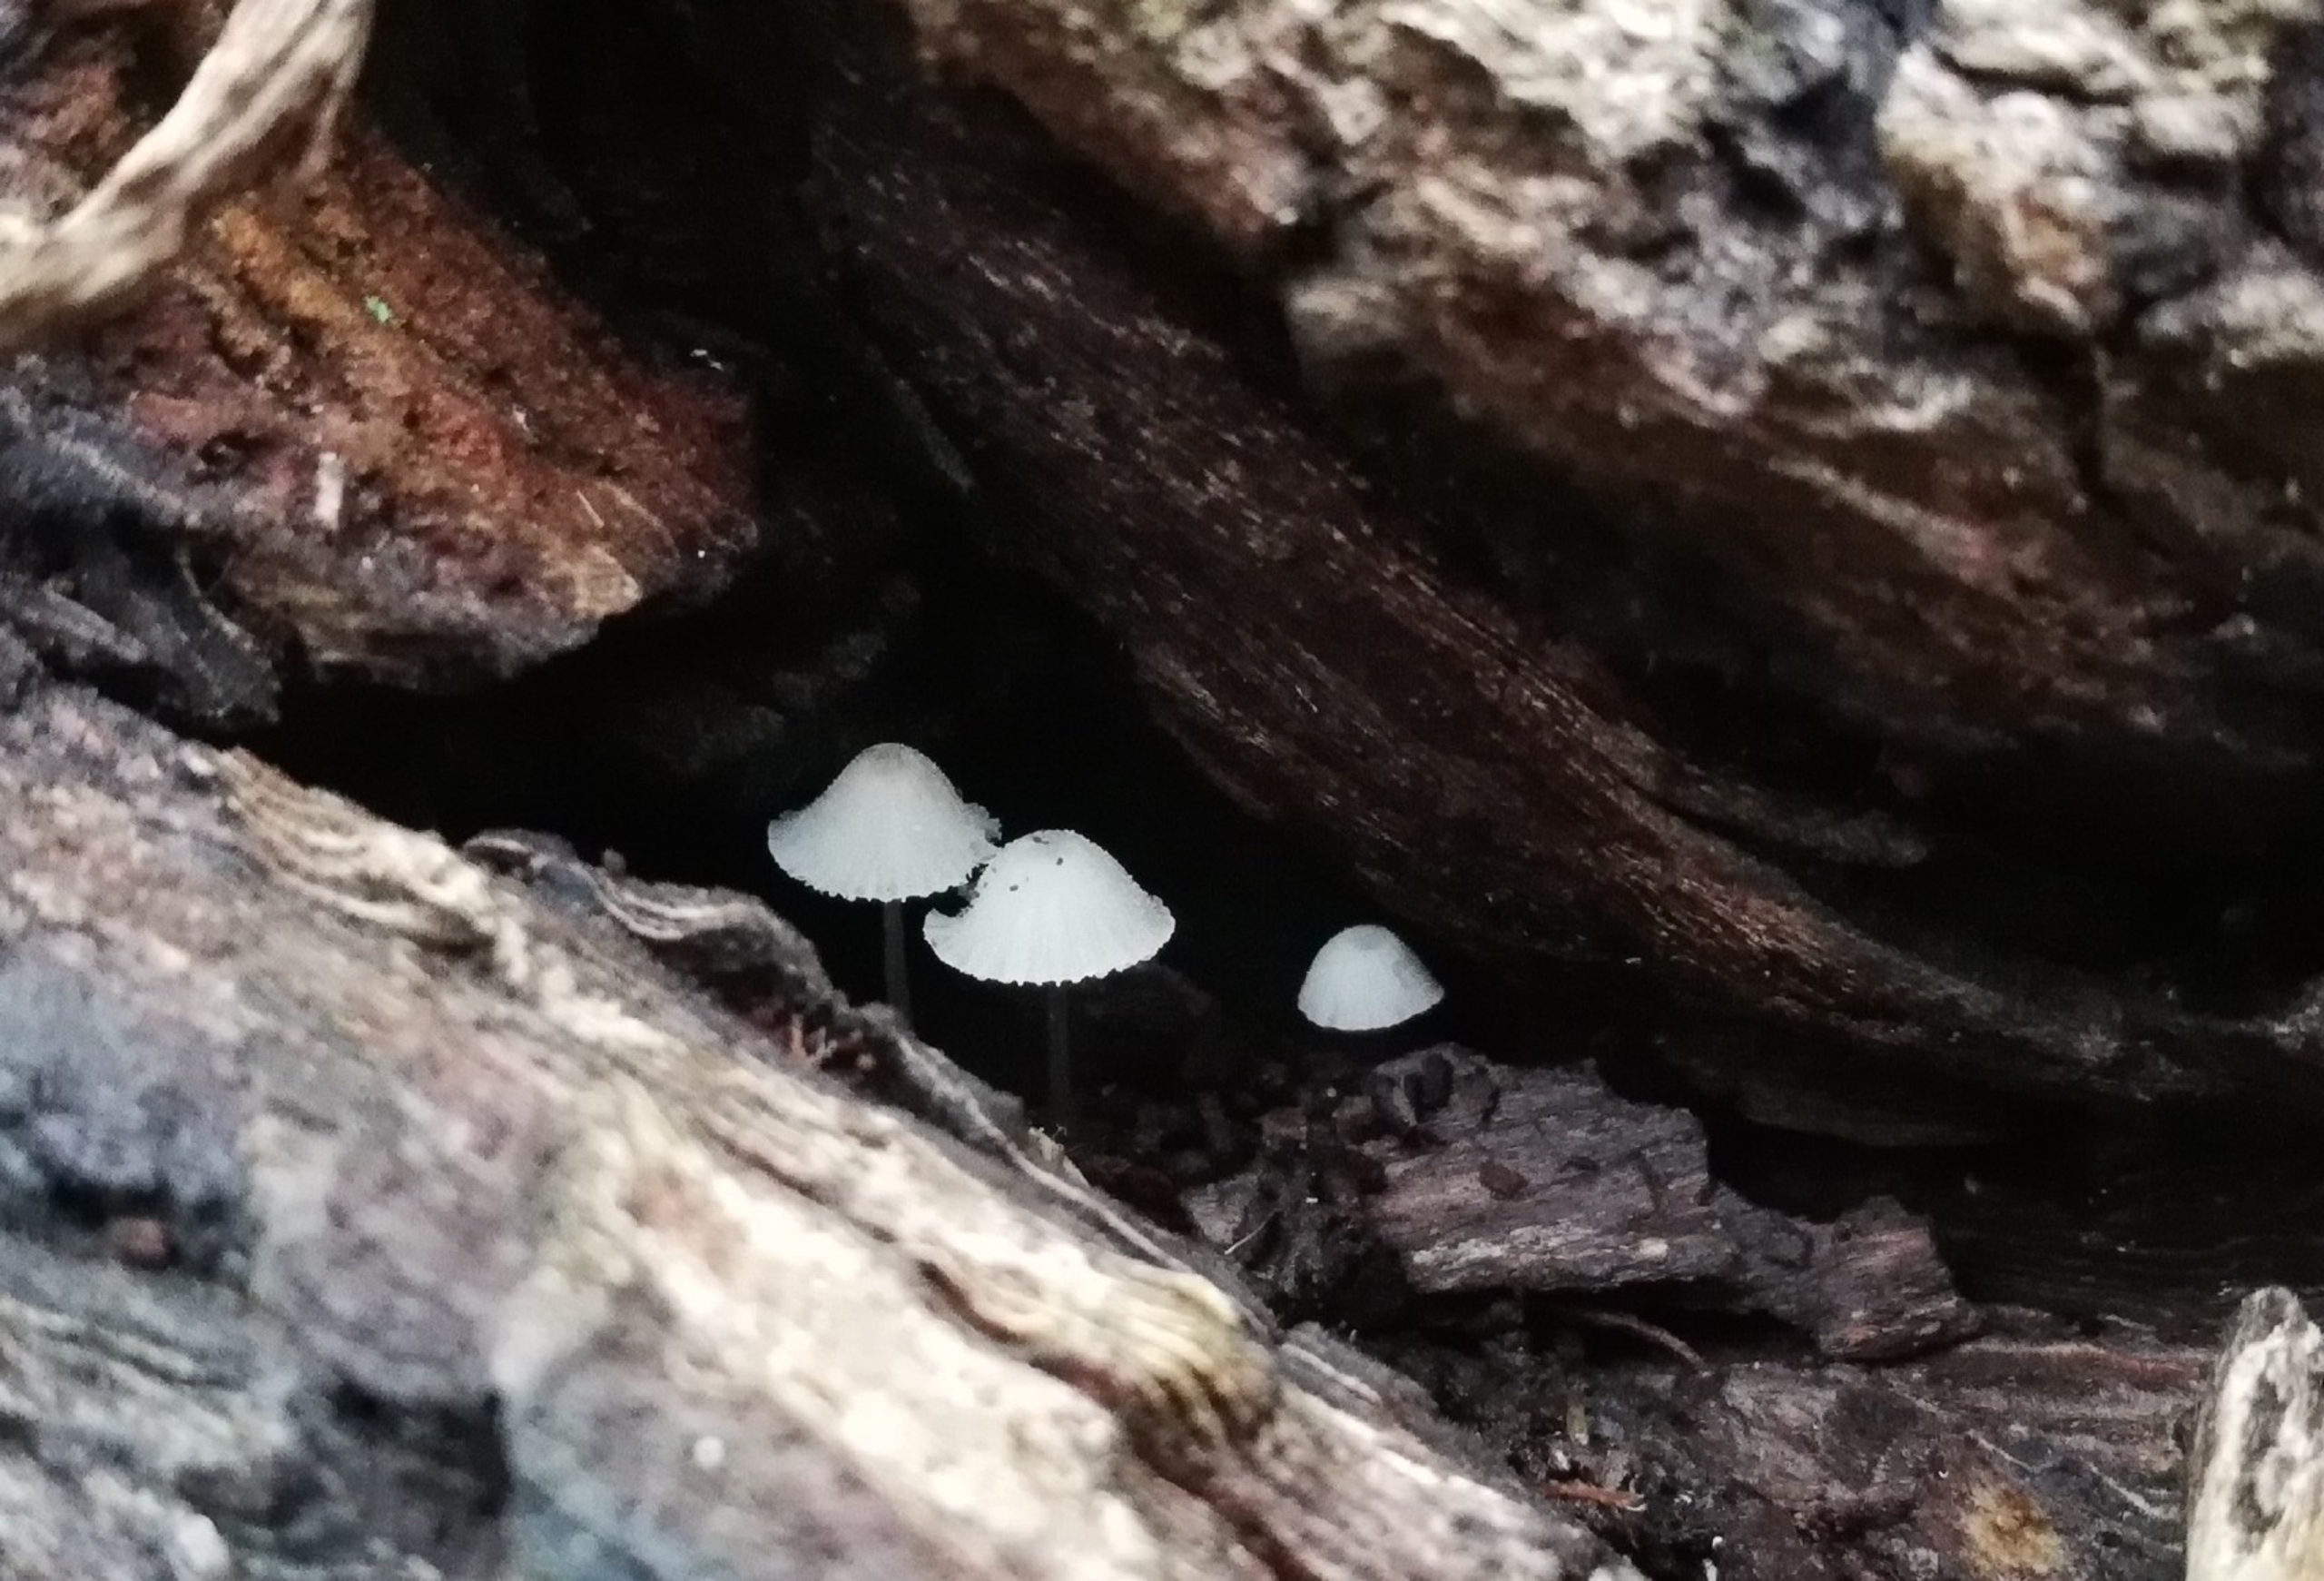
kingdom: Fungi
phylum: Basidiomycota
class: Agaricomycetes
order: Agaricales
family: Mycenaceae
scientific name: Mycenaceae
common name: Huesvampfamilien
